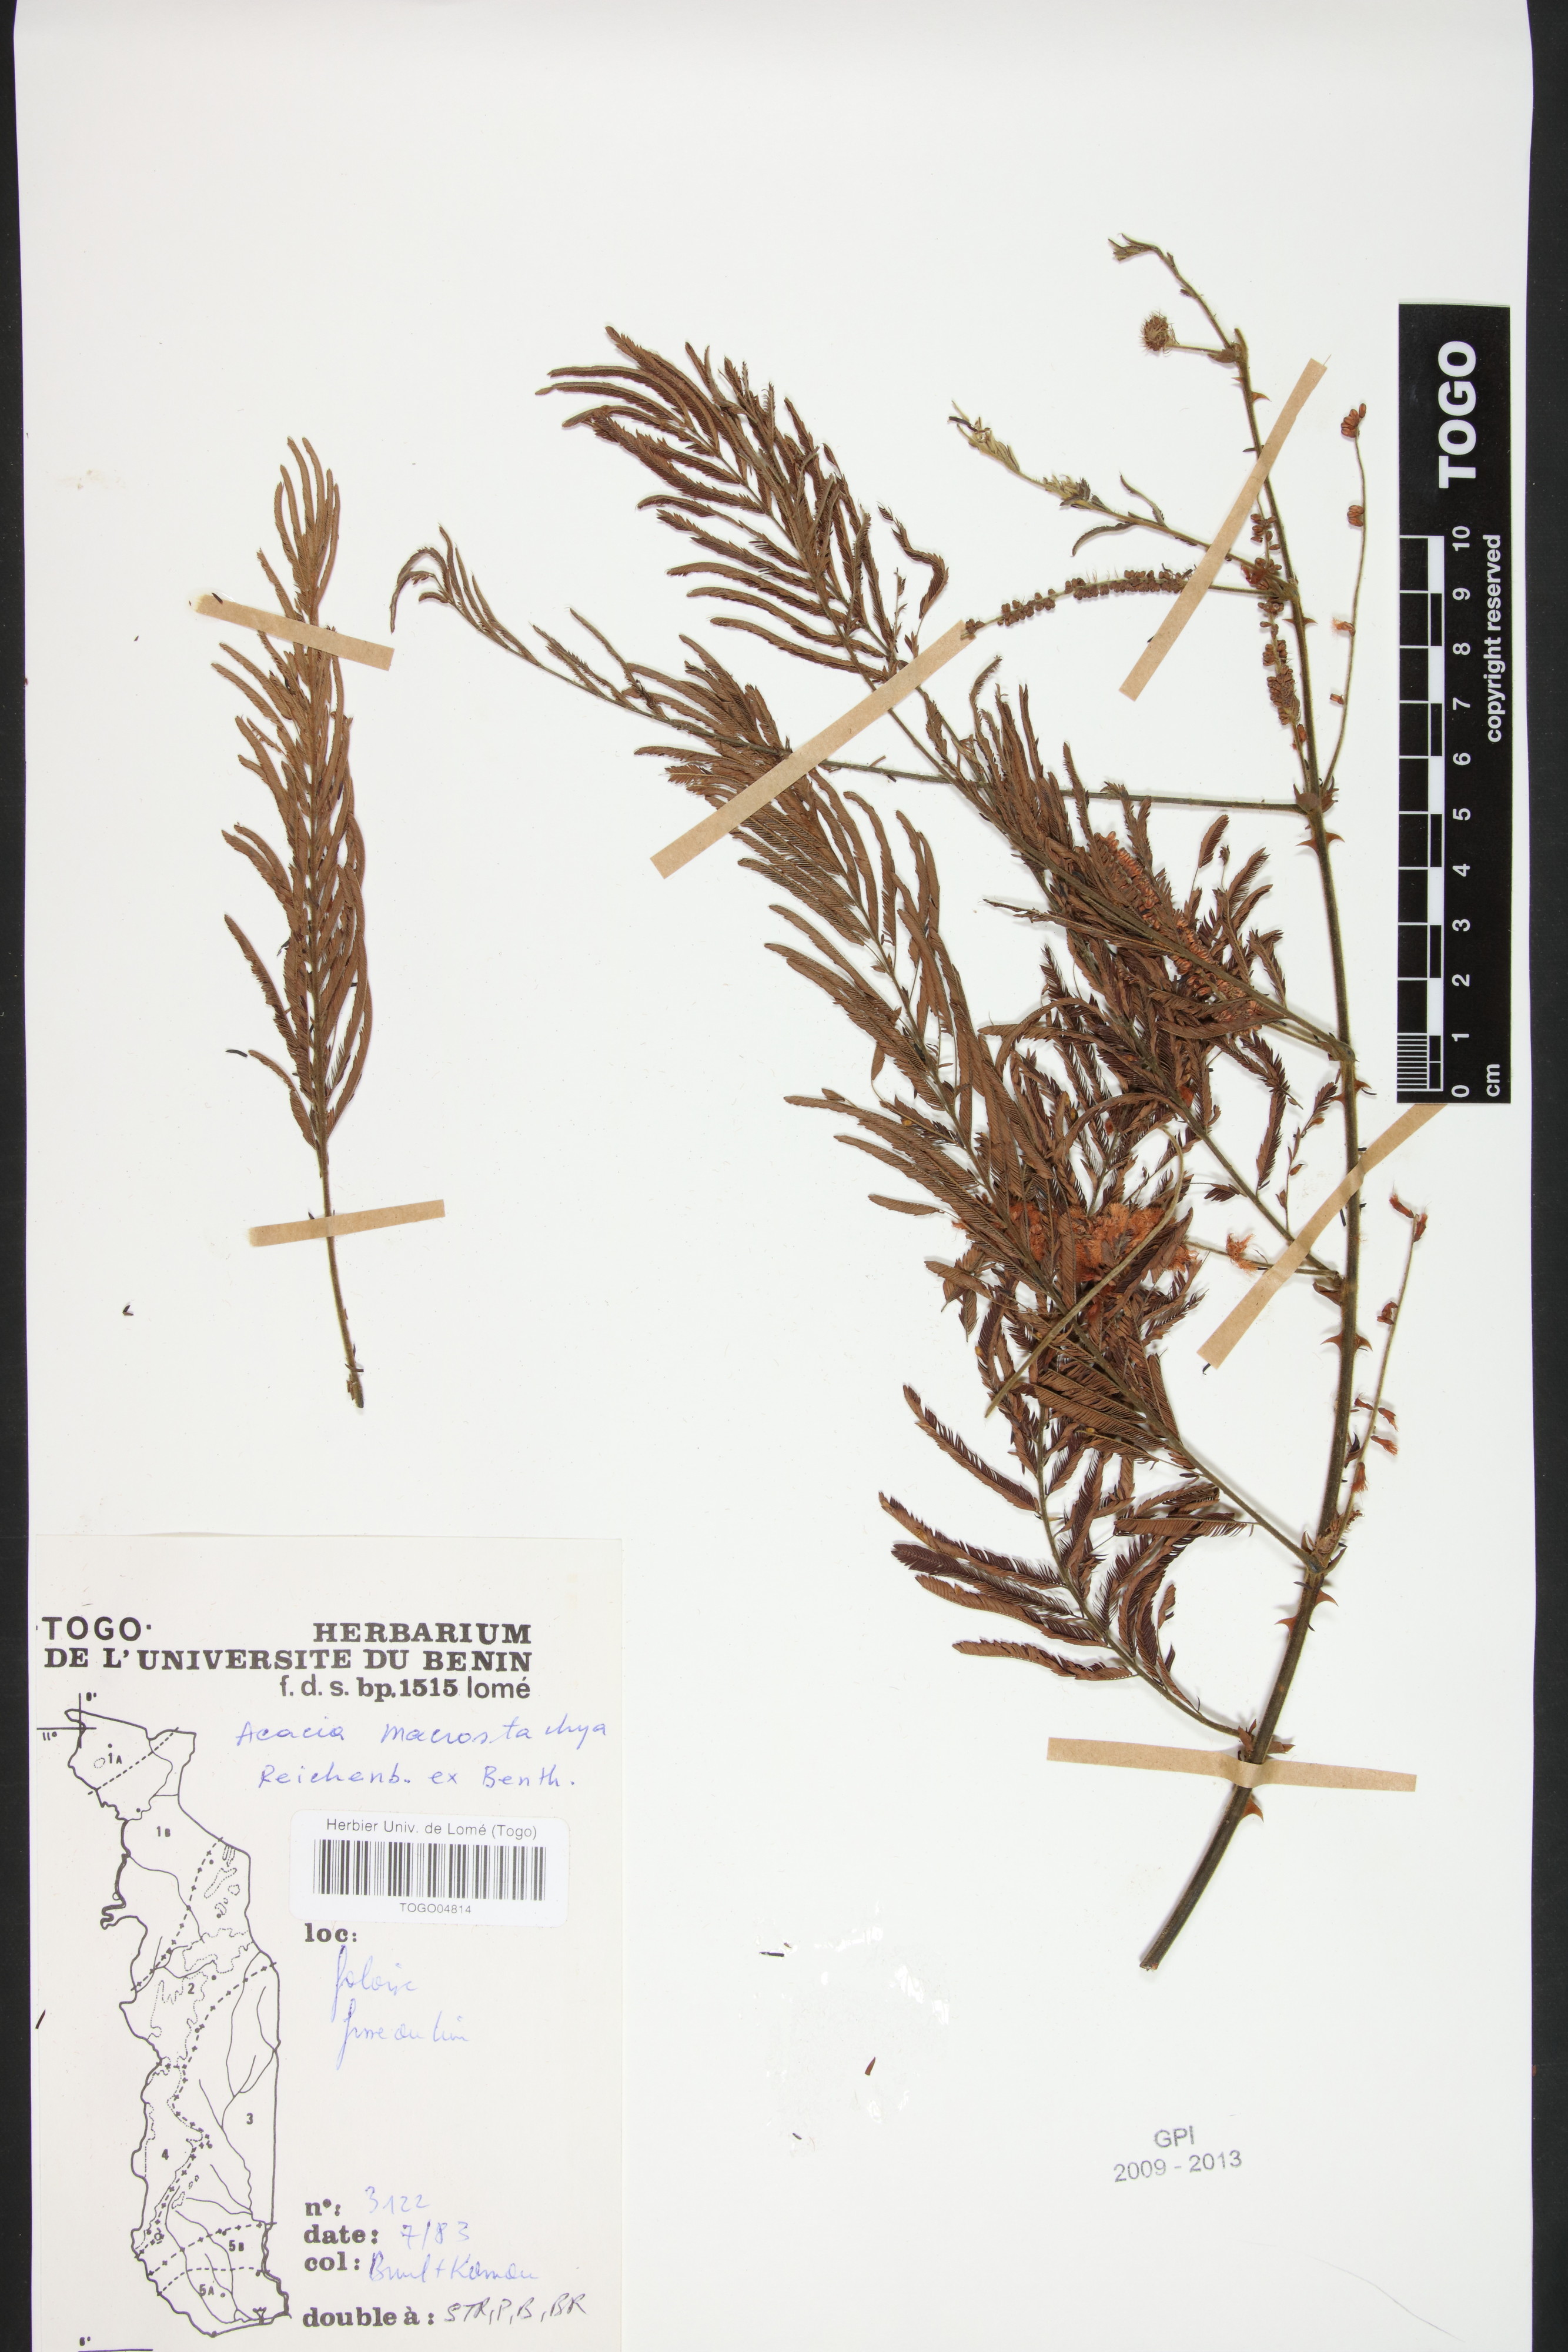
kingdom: Plantae
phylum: Tracheophyta
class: Magnoliopsida
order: Fabales
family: Fabaceae
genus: Senegalia
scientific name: Senegalia macrostachya
